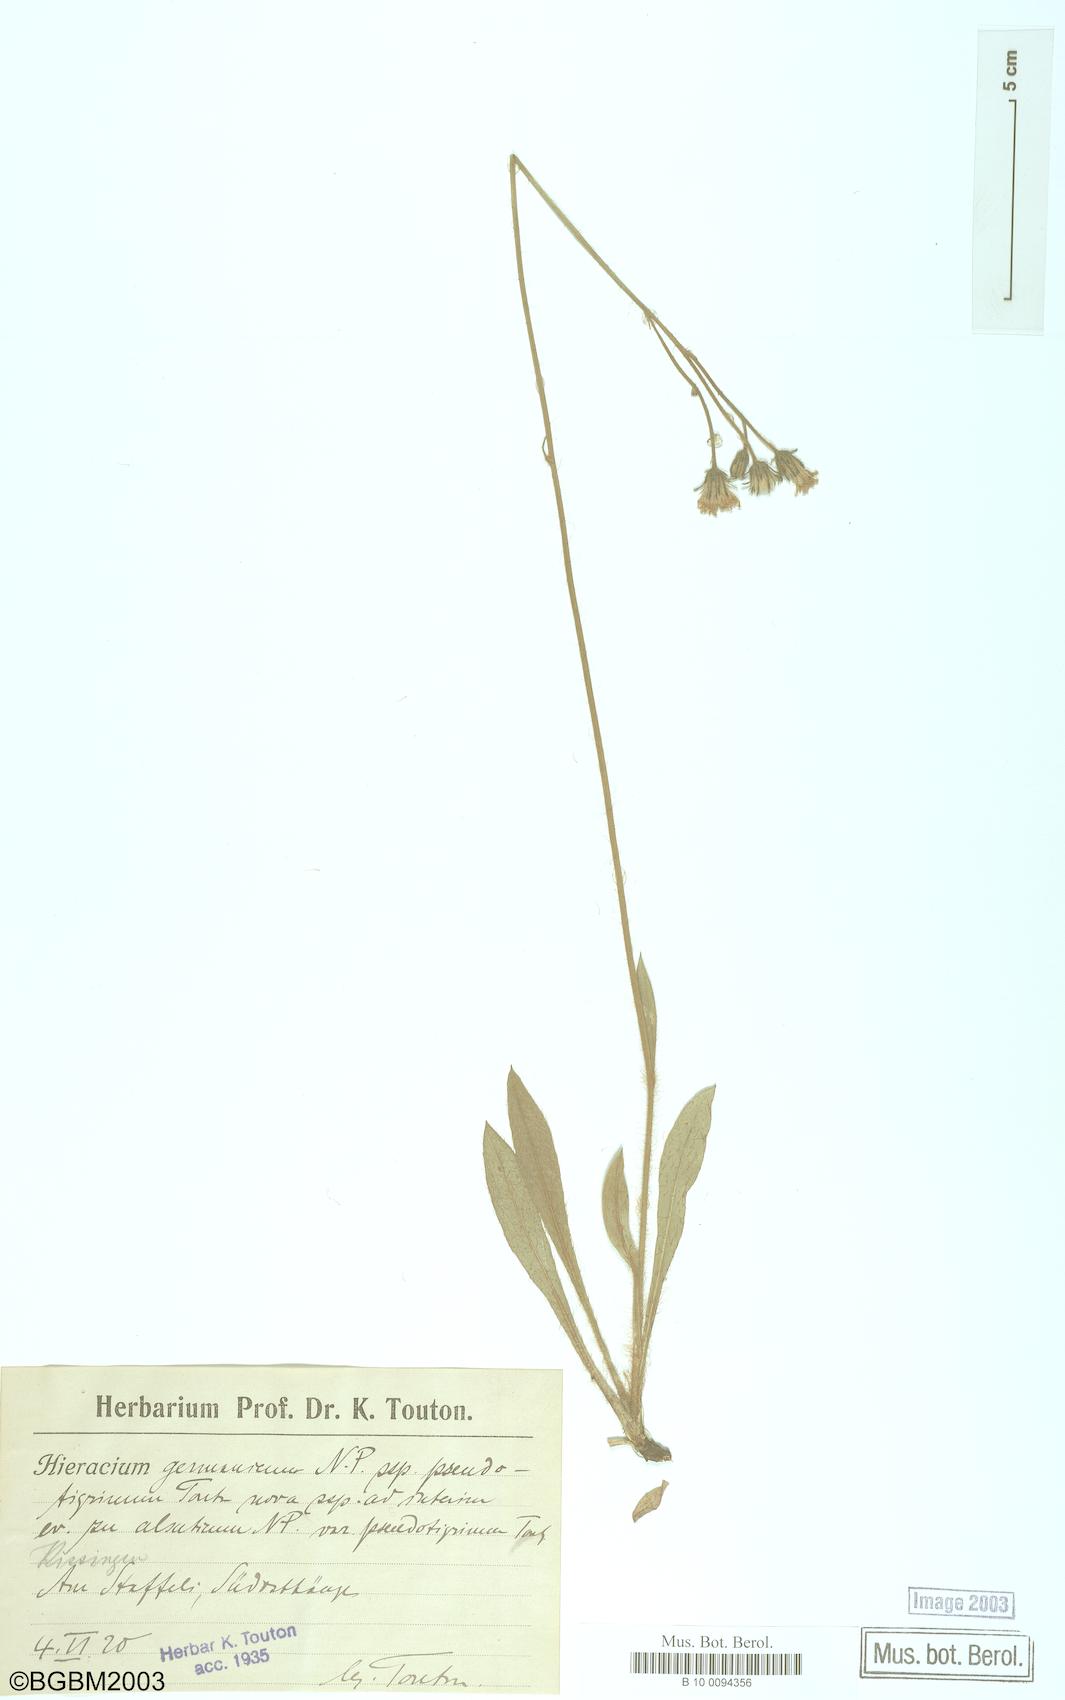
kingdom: Plantae
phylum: Tracheophyta
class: Magnoliopsida
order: Asterales
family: Asteraceae
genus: Pilosella
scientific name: Pilosella fallacina
